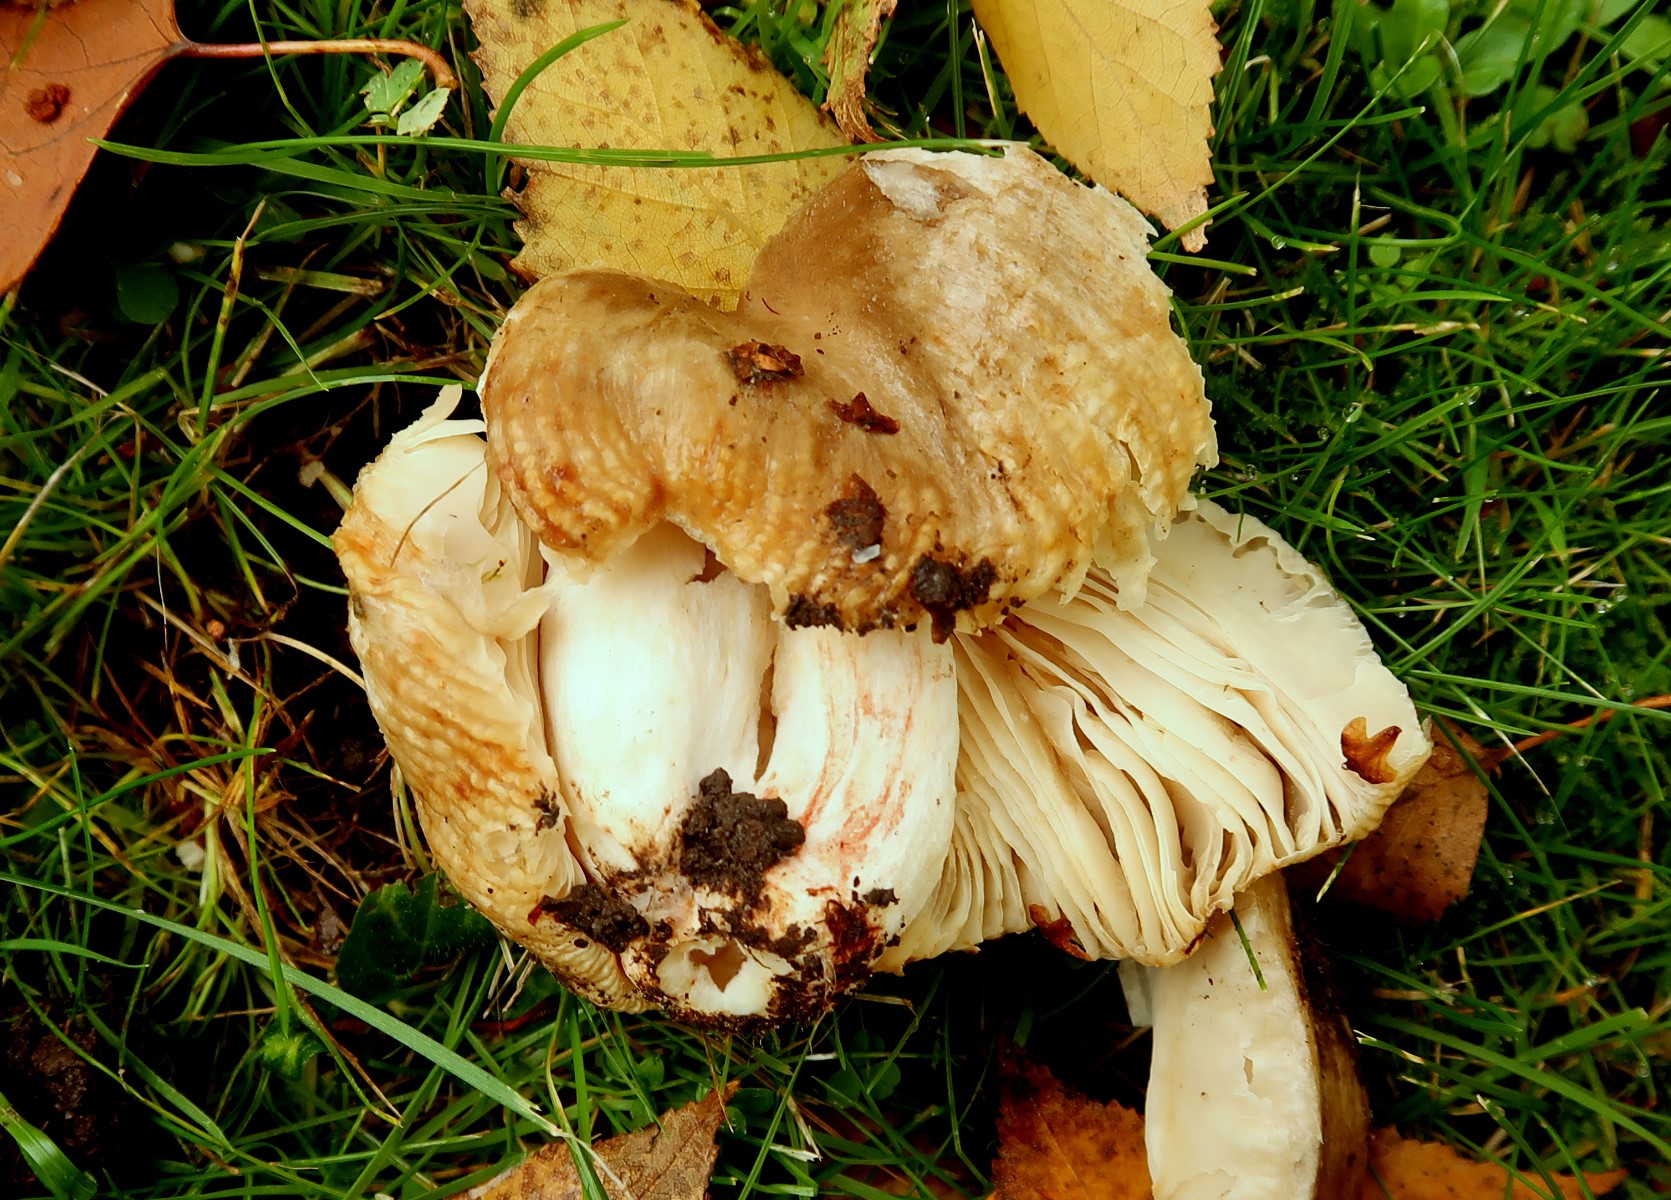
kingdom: Fungi
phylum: Basidiomycota
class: Agaricomycetes
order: Russulales
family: Russulaceae
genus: Russula
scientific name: Russula grata
